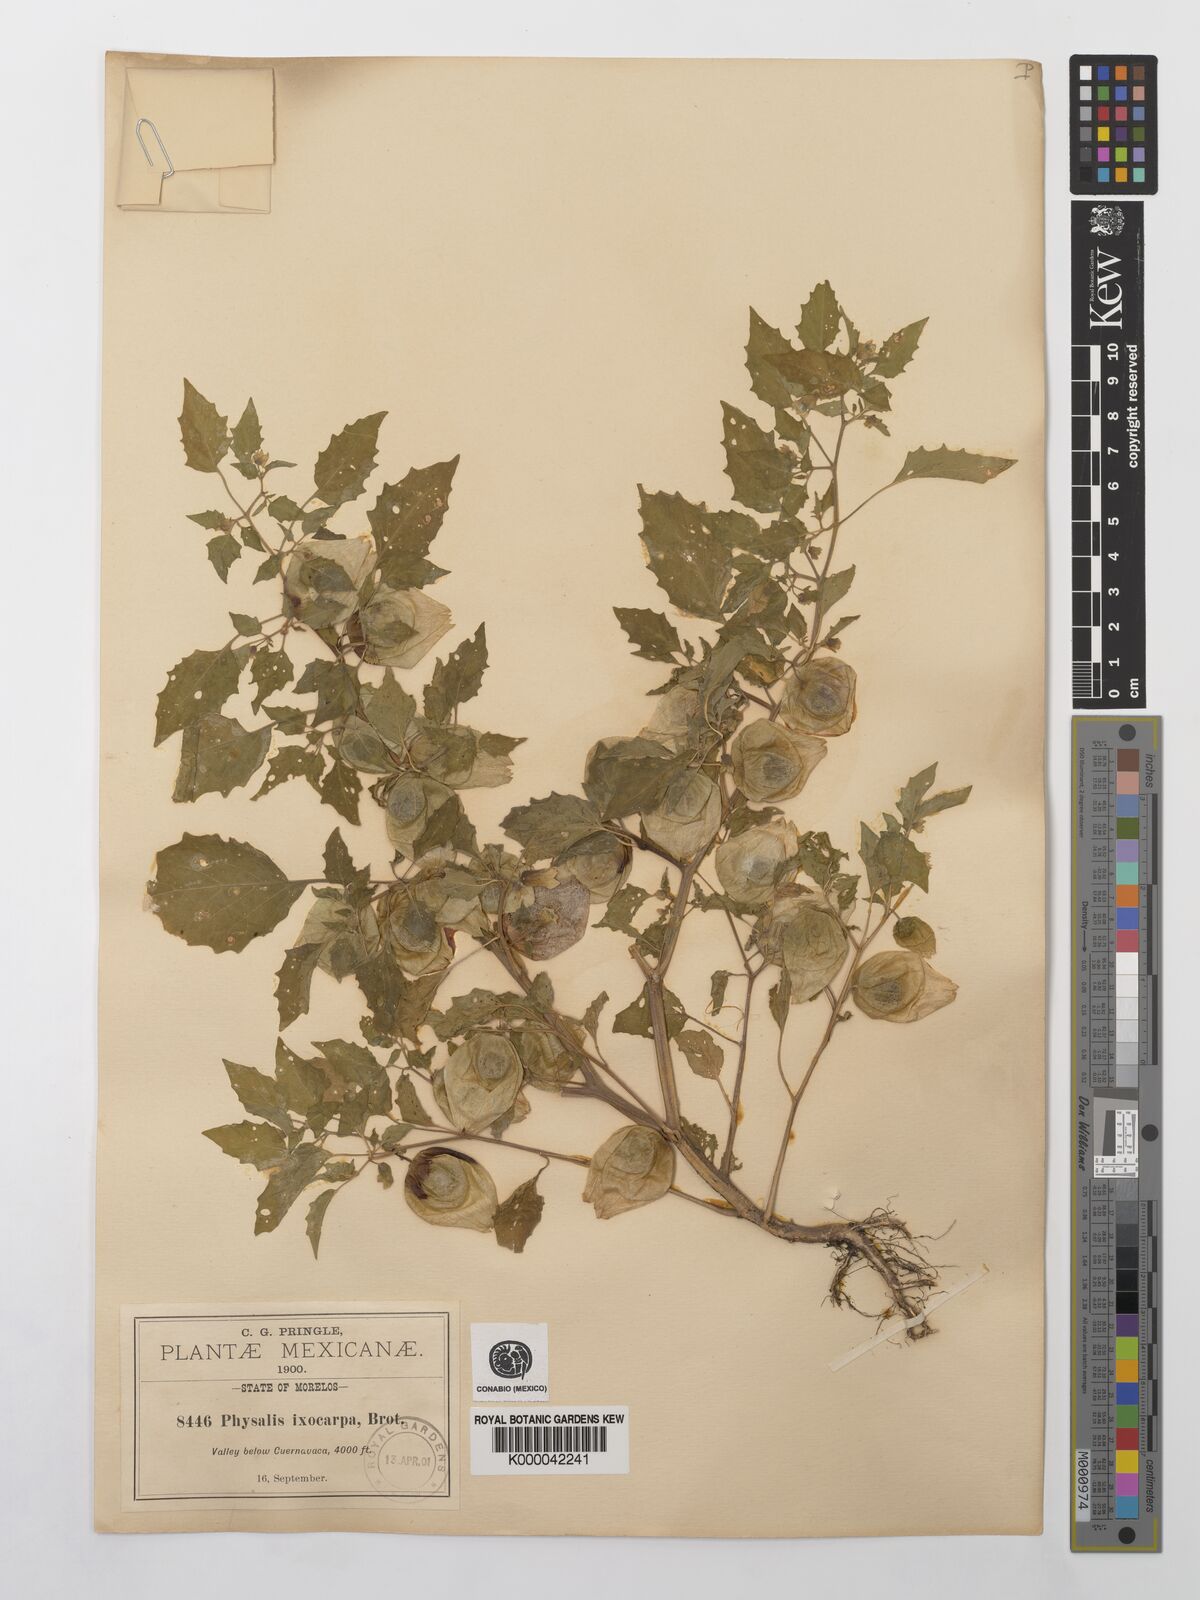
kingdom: Plantae
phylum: Tracheophyta
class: Magnoliopsida
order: Solanales
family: Solanaceae
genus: Physalis
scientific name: Physalis philadelphica
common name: Husk-tomato
